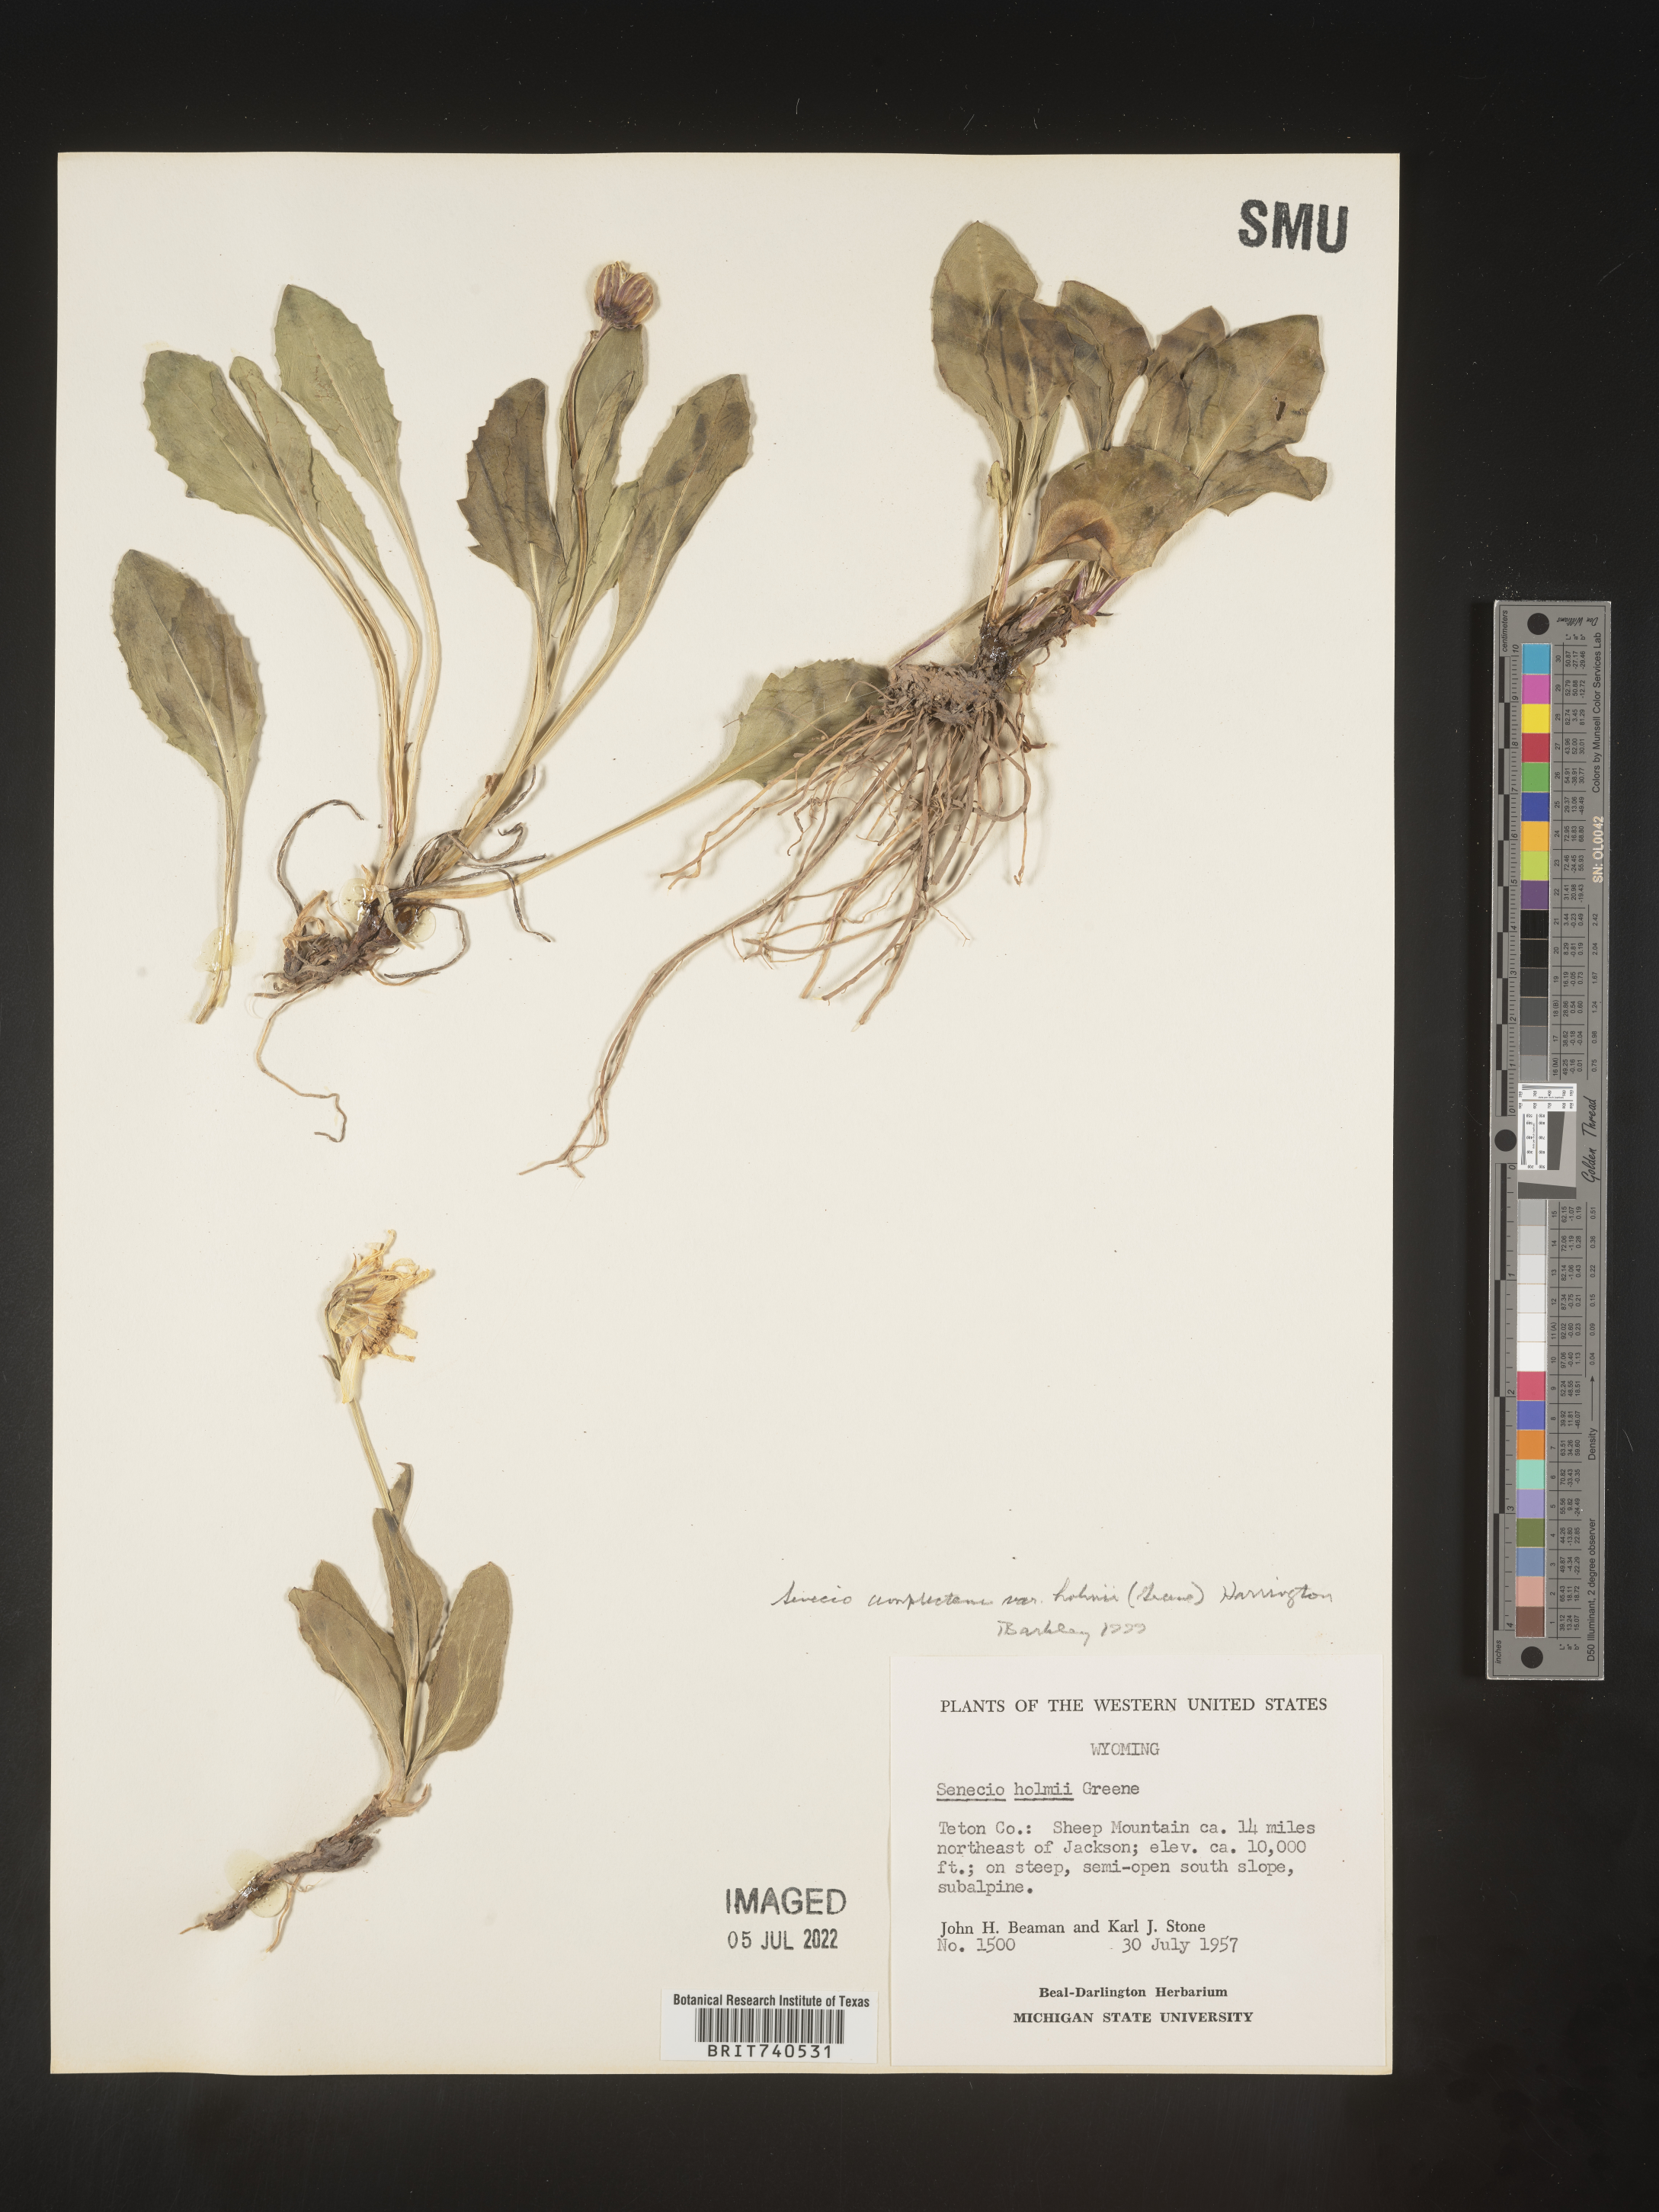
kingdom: Plantae
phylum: Tracheophyta
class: Magnoliopsida
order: Asterales
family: Asteraceae
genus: Senecio
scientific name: Senecio amplectens
